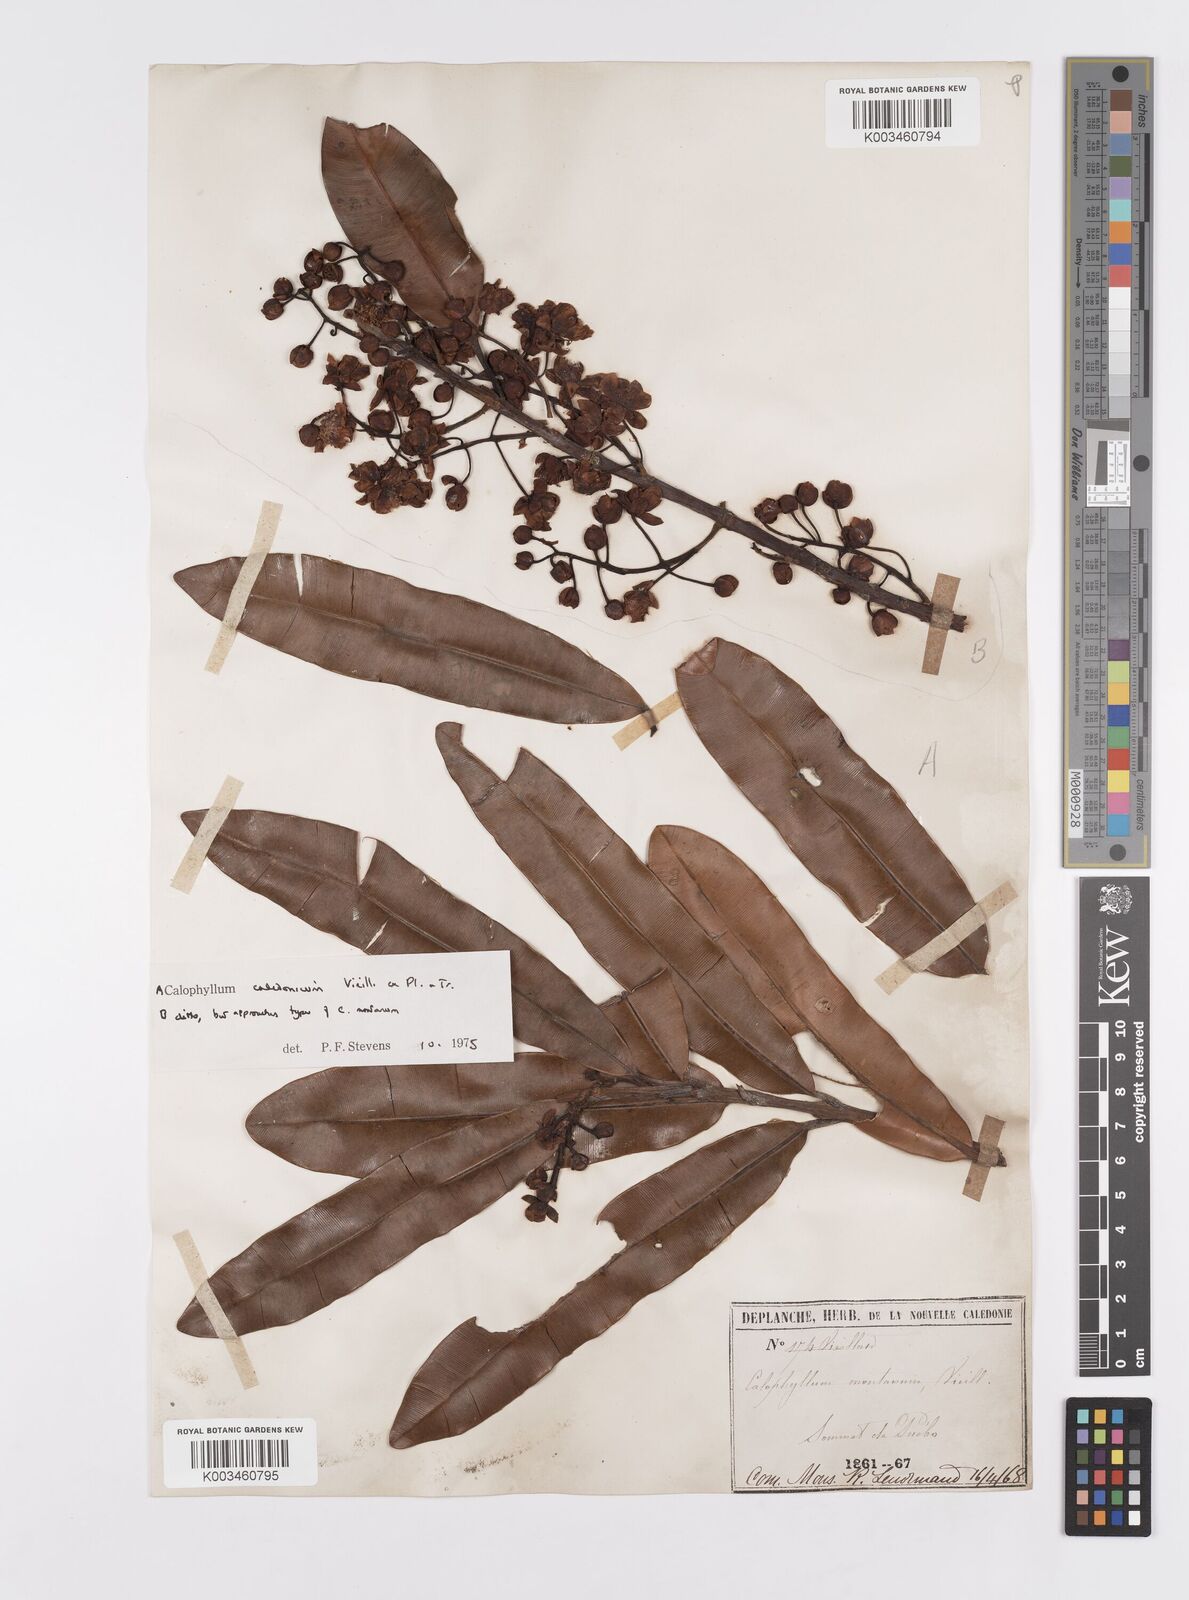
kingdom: Plantae
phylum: Tracheophyta
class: Magnoliopsida
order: Malpighiales
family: Calophyllaceae
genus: Calophyllum
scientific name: Calophyllum caledonicum
